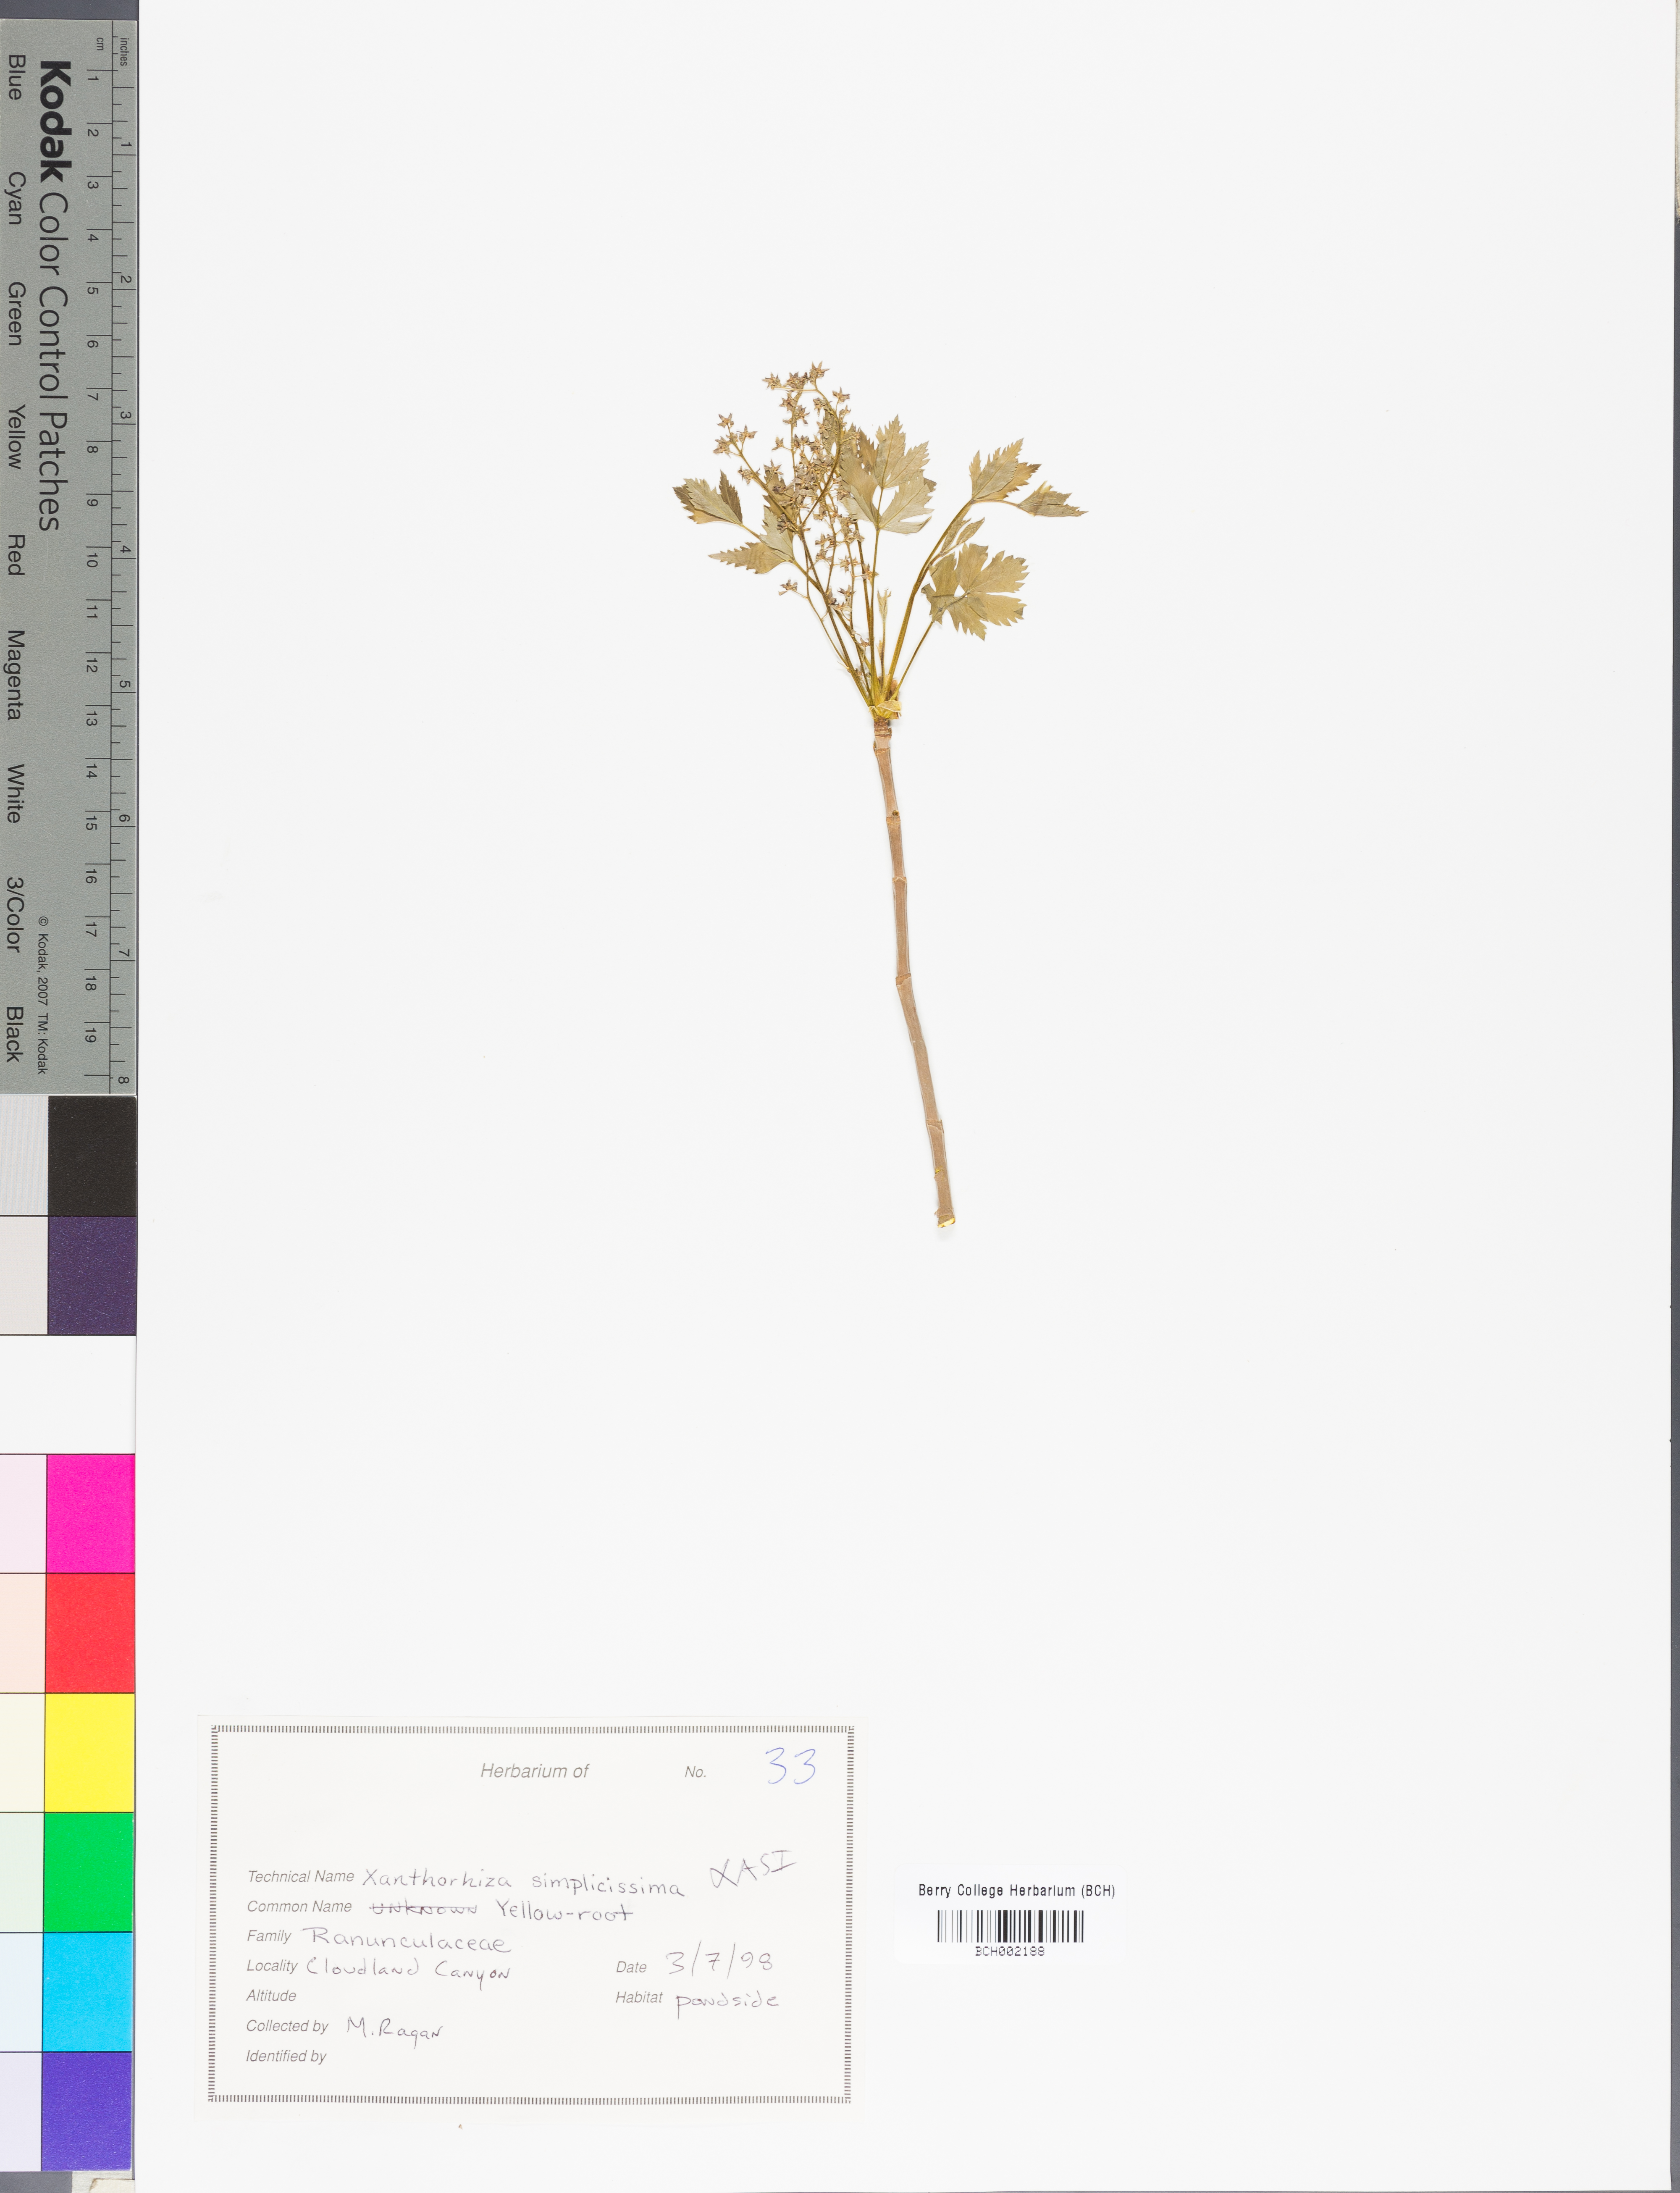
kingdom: Plantae
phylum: Tracheophyta
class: Magnoliopsida
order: Ranunculales
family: Ranunculaceae
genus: Xanthorhiza
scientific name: Xanthorhiza simplicissima
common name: Yellowroot
